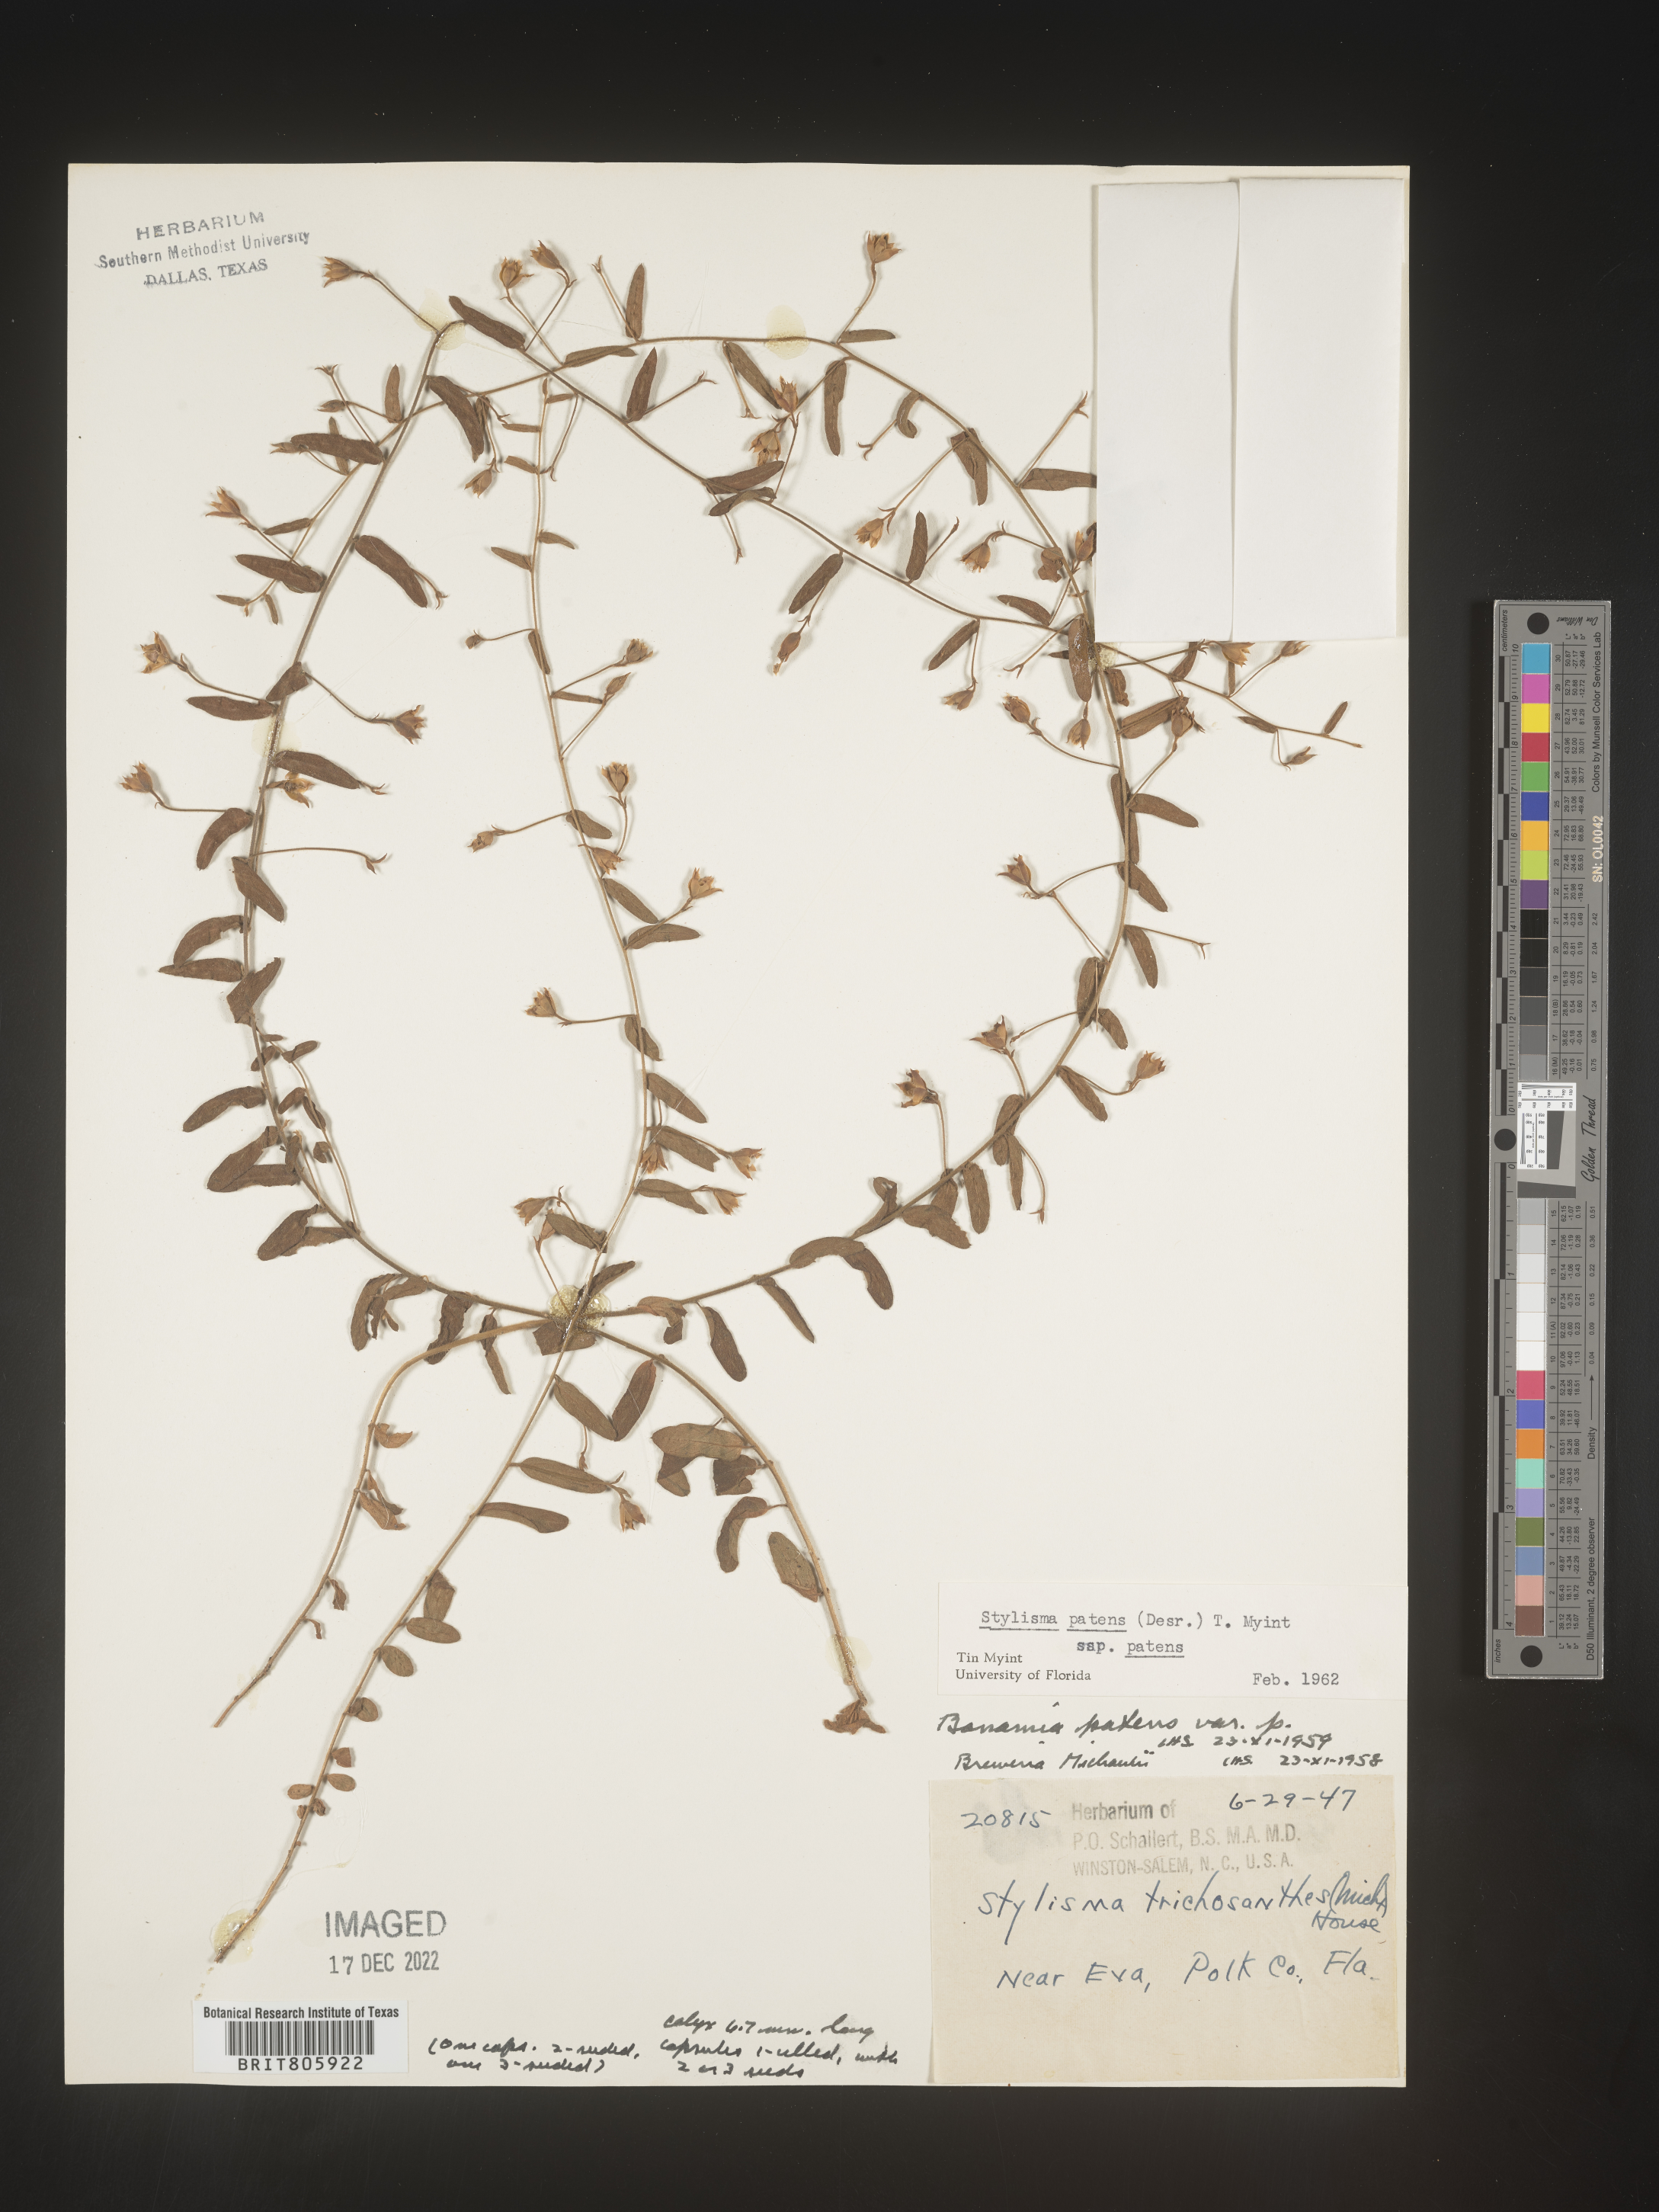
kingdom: Plantae
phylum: Tracheophyta
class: Magnoliopsida
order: Solanales
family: Convolvulaceae
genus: Stylisma
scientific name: Stylisma
